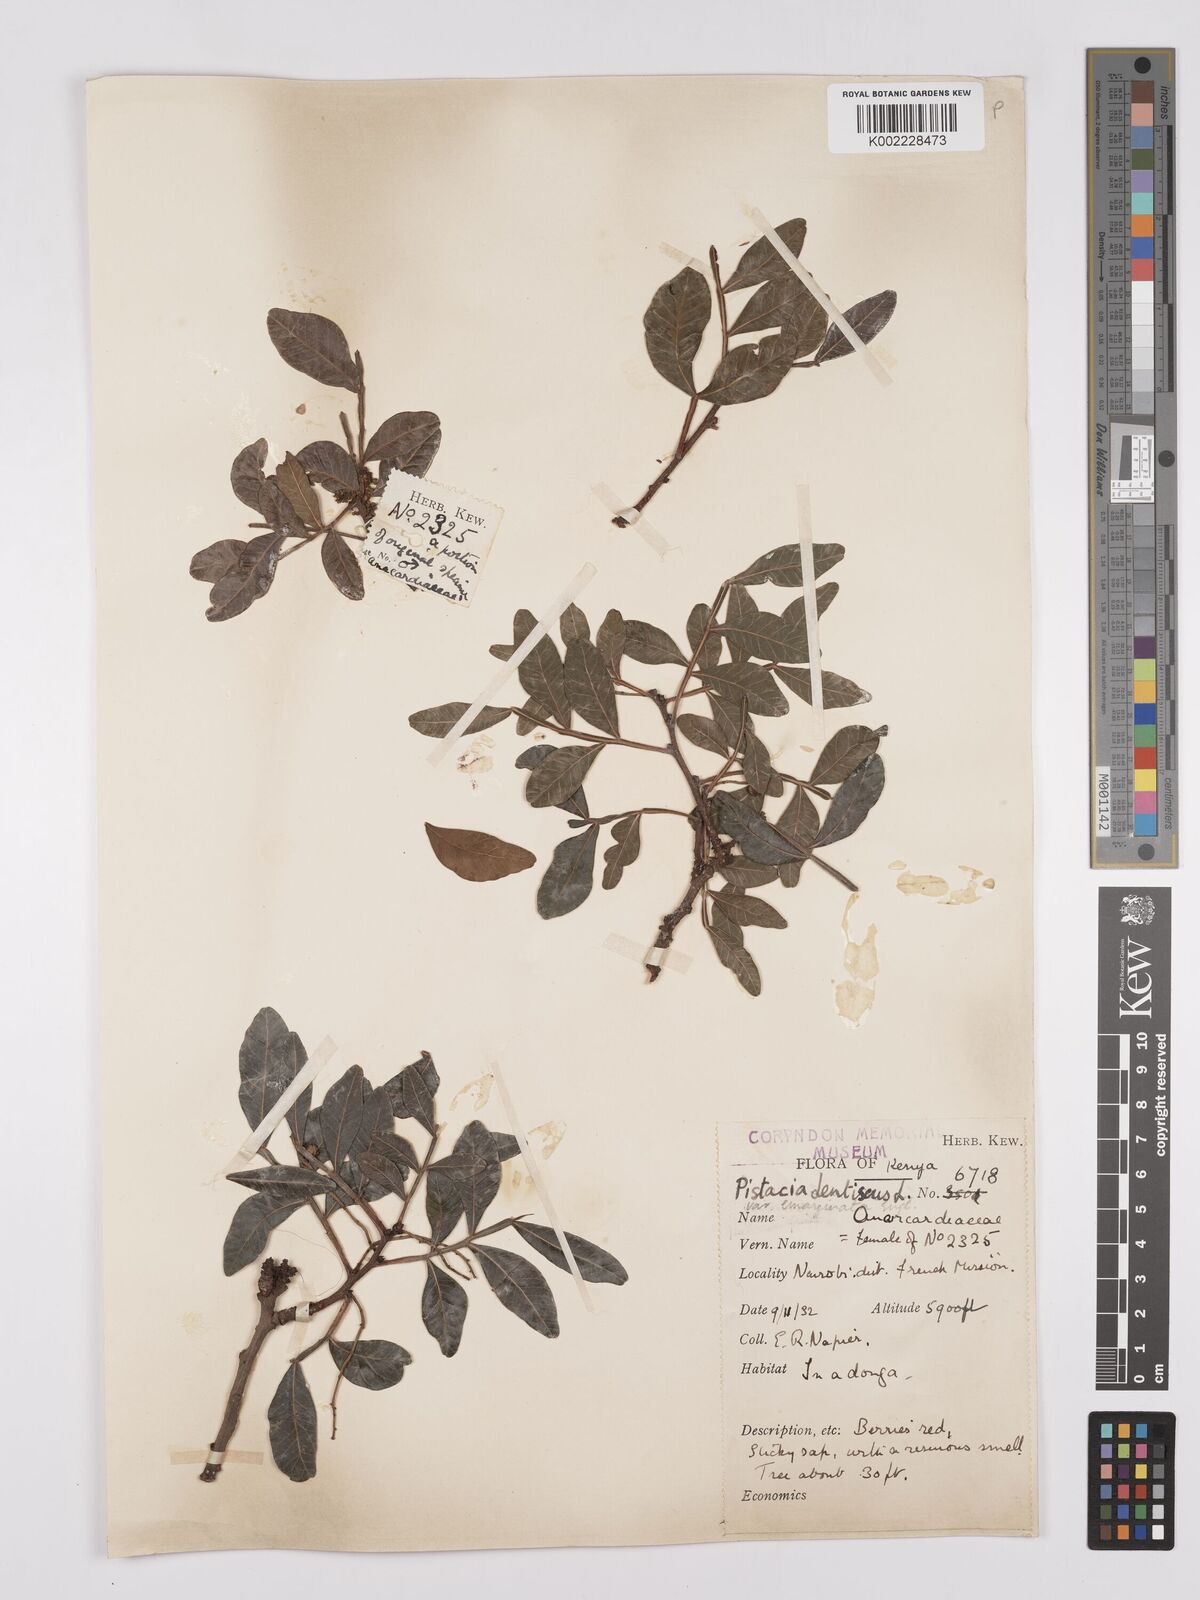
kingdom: Plantae
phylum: Tracheophyta
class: Magnoliopsida
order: Sapindales
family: Anacardiaceae
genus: Pistacia
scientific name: Pistacia lentiscus
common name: Lentisk
